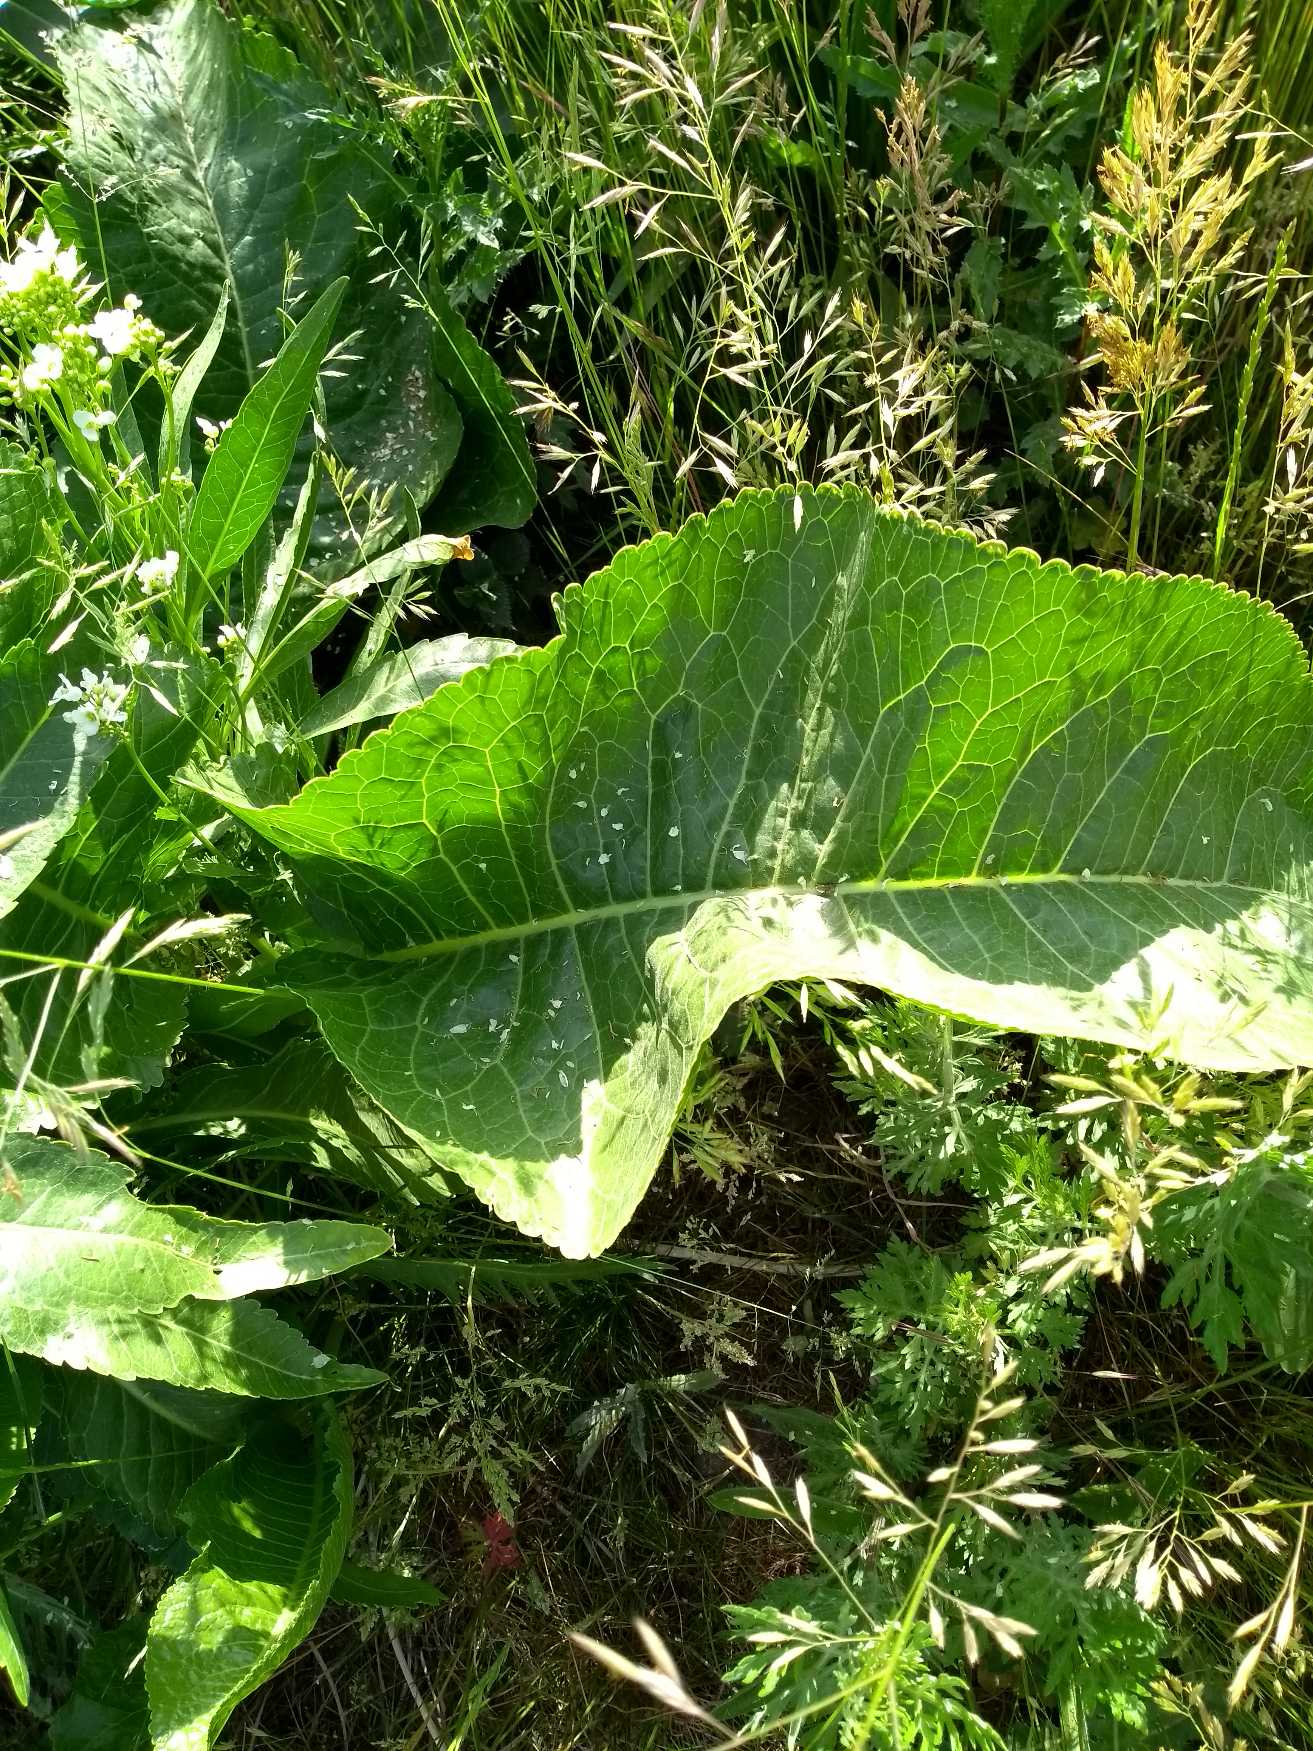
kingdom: Plantae
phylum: Tracheophyta
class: Magnoliopsida
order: Brassicales
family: Brassicaceae
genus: Armoracia
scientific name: Armoracia rusticana
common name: Peberrod
